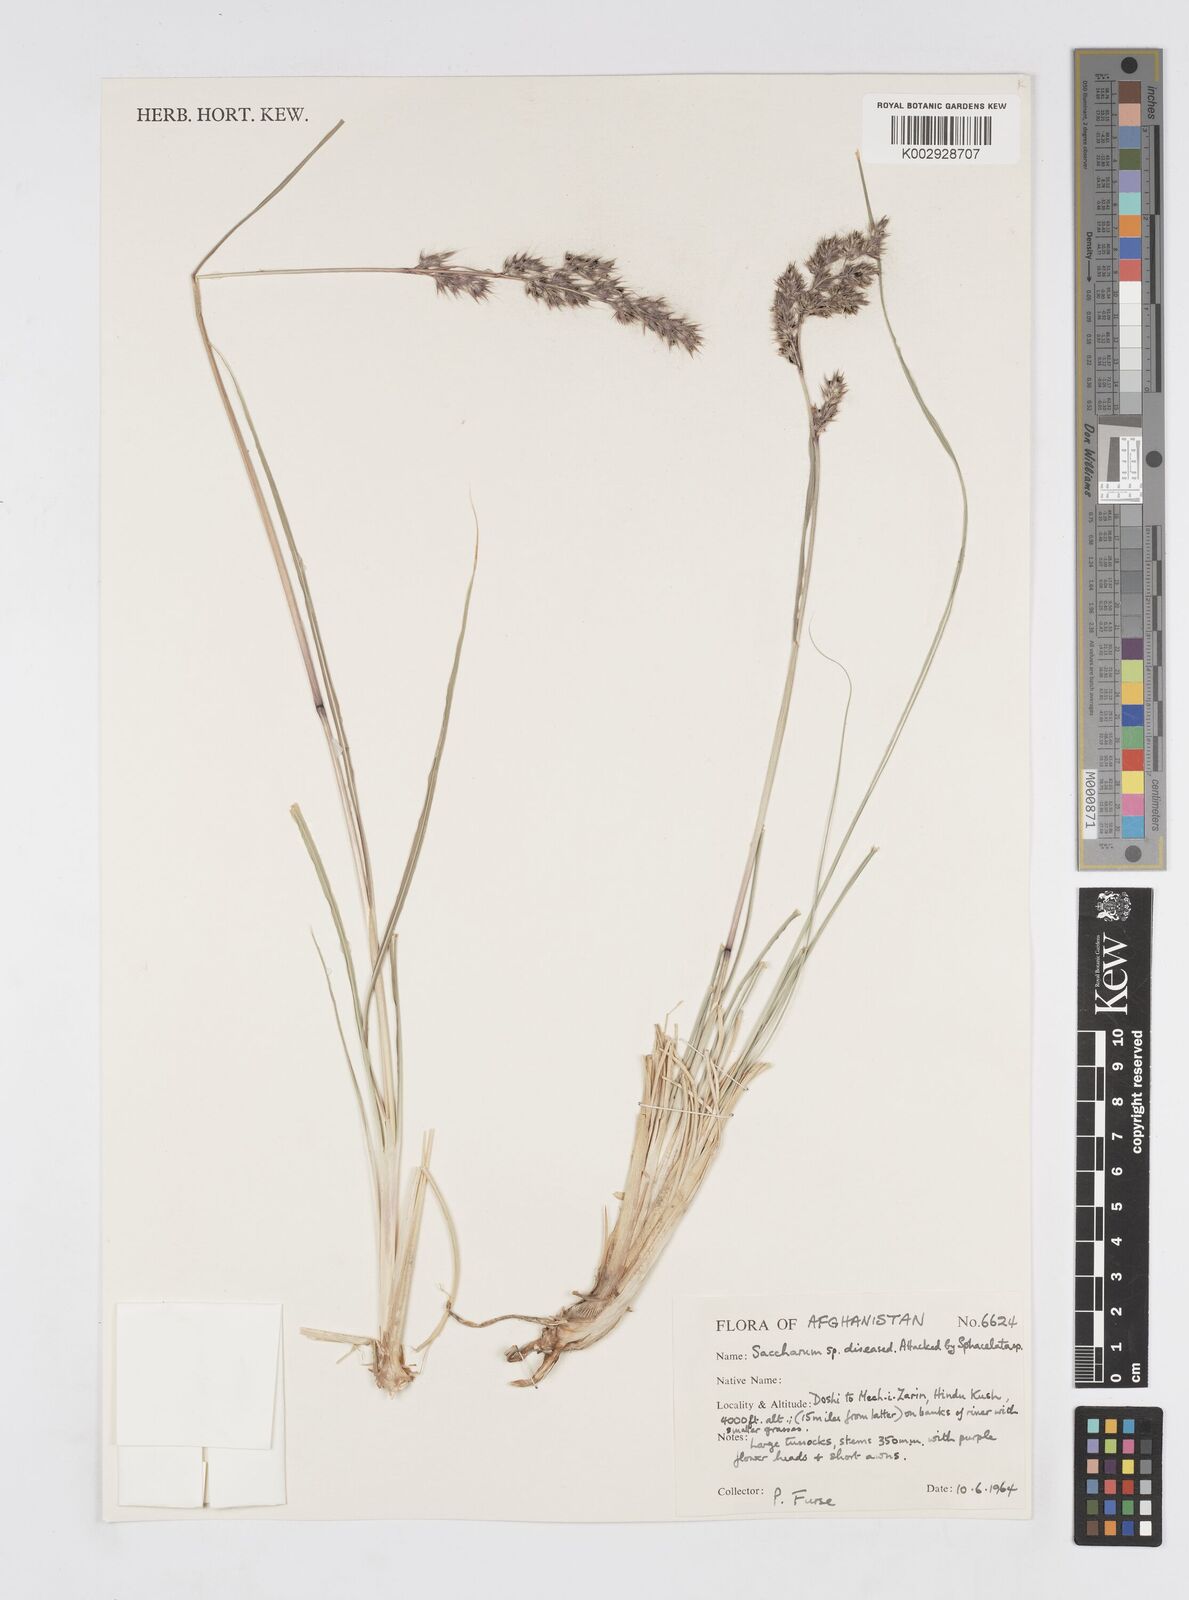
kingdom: Plantae
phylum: Tracheophyta
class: Liliopsida
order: Poales
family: Poaceae
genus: Saccharum
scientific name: Saccharum
